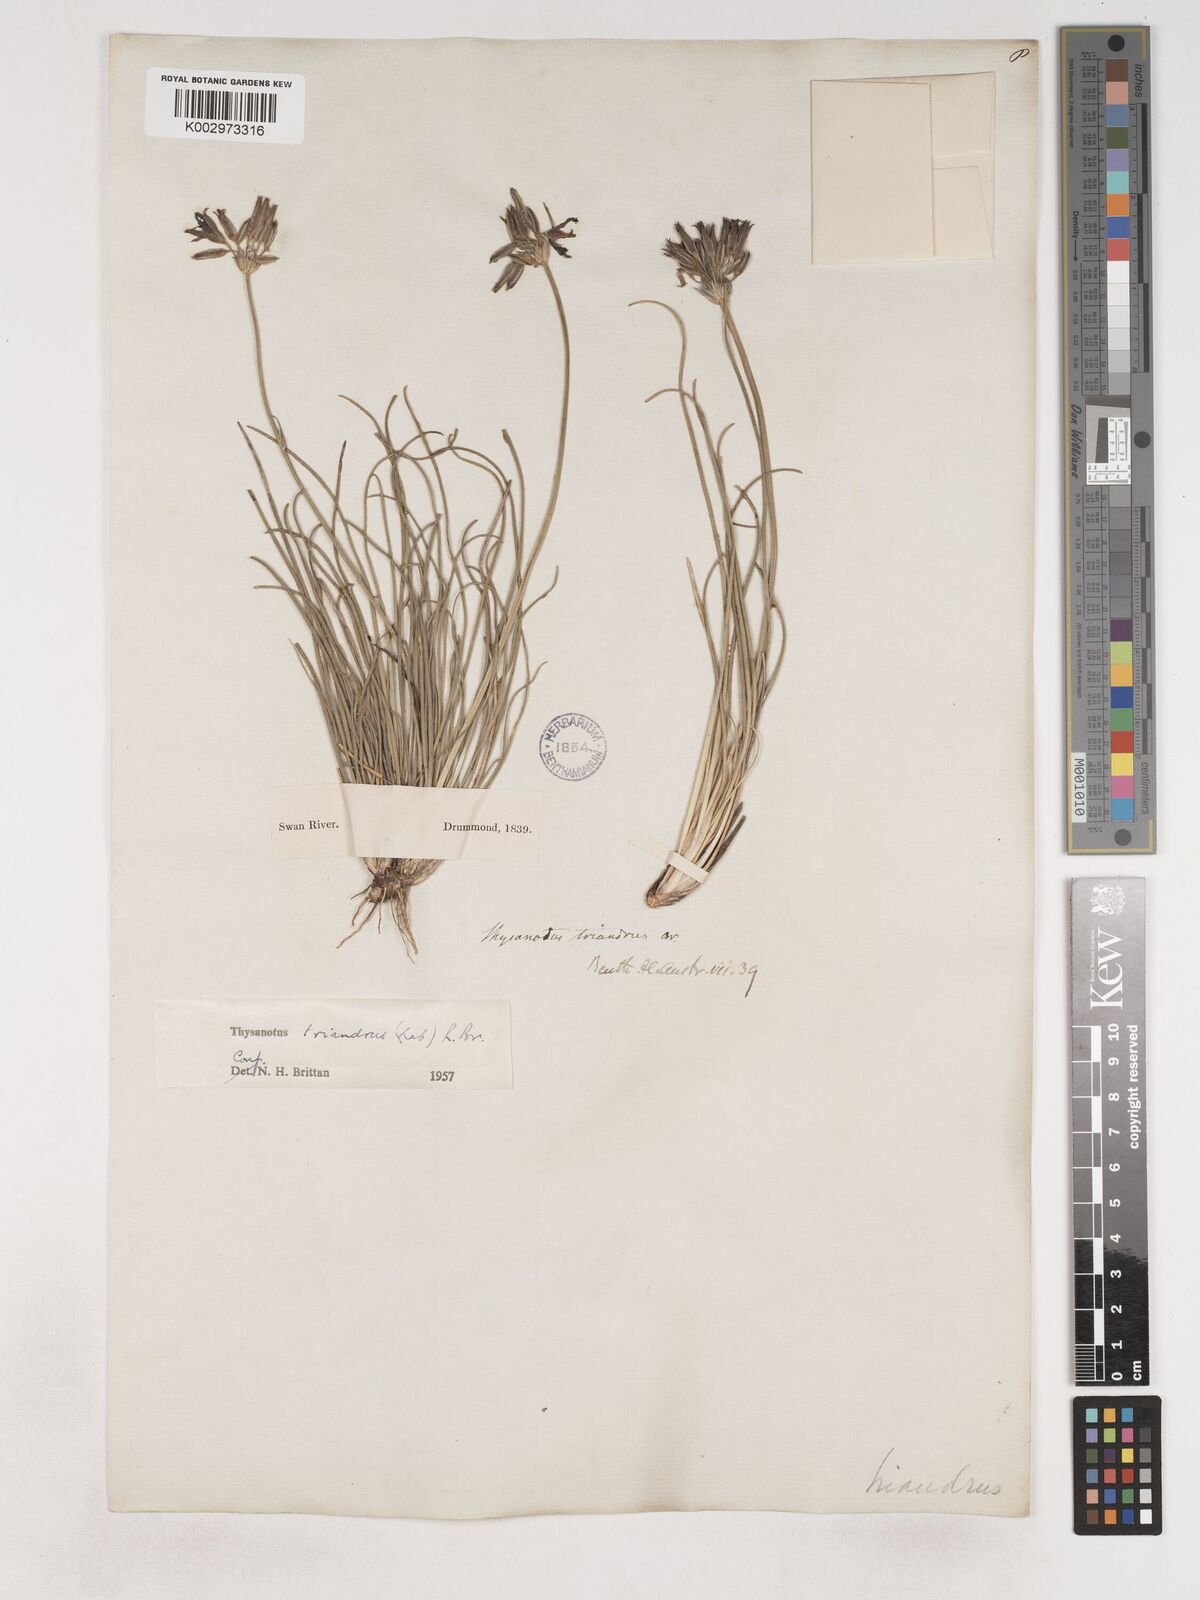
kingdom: Plantae
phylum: Tracheophyta
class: Liliopsida
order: Asparagales
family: Asparagaceae
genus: Thysanotus
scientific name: Thysanotus triandrus
